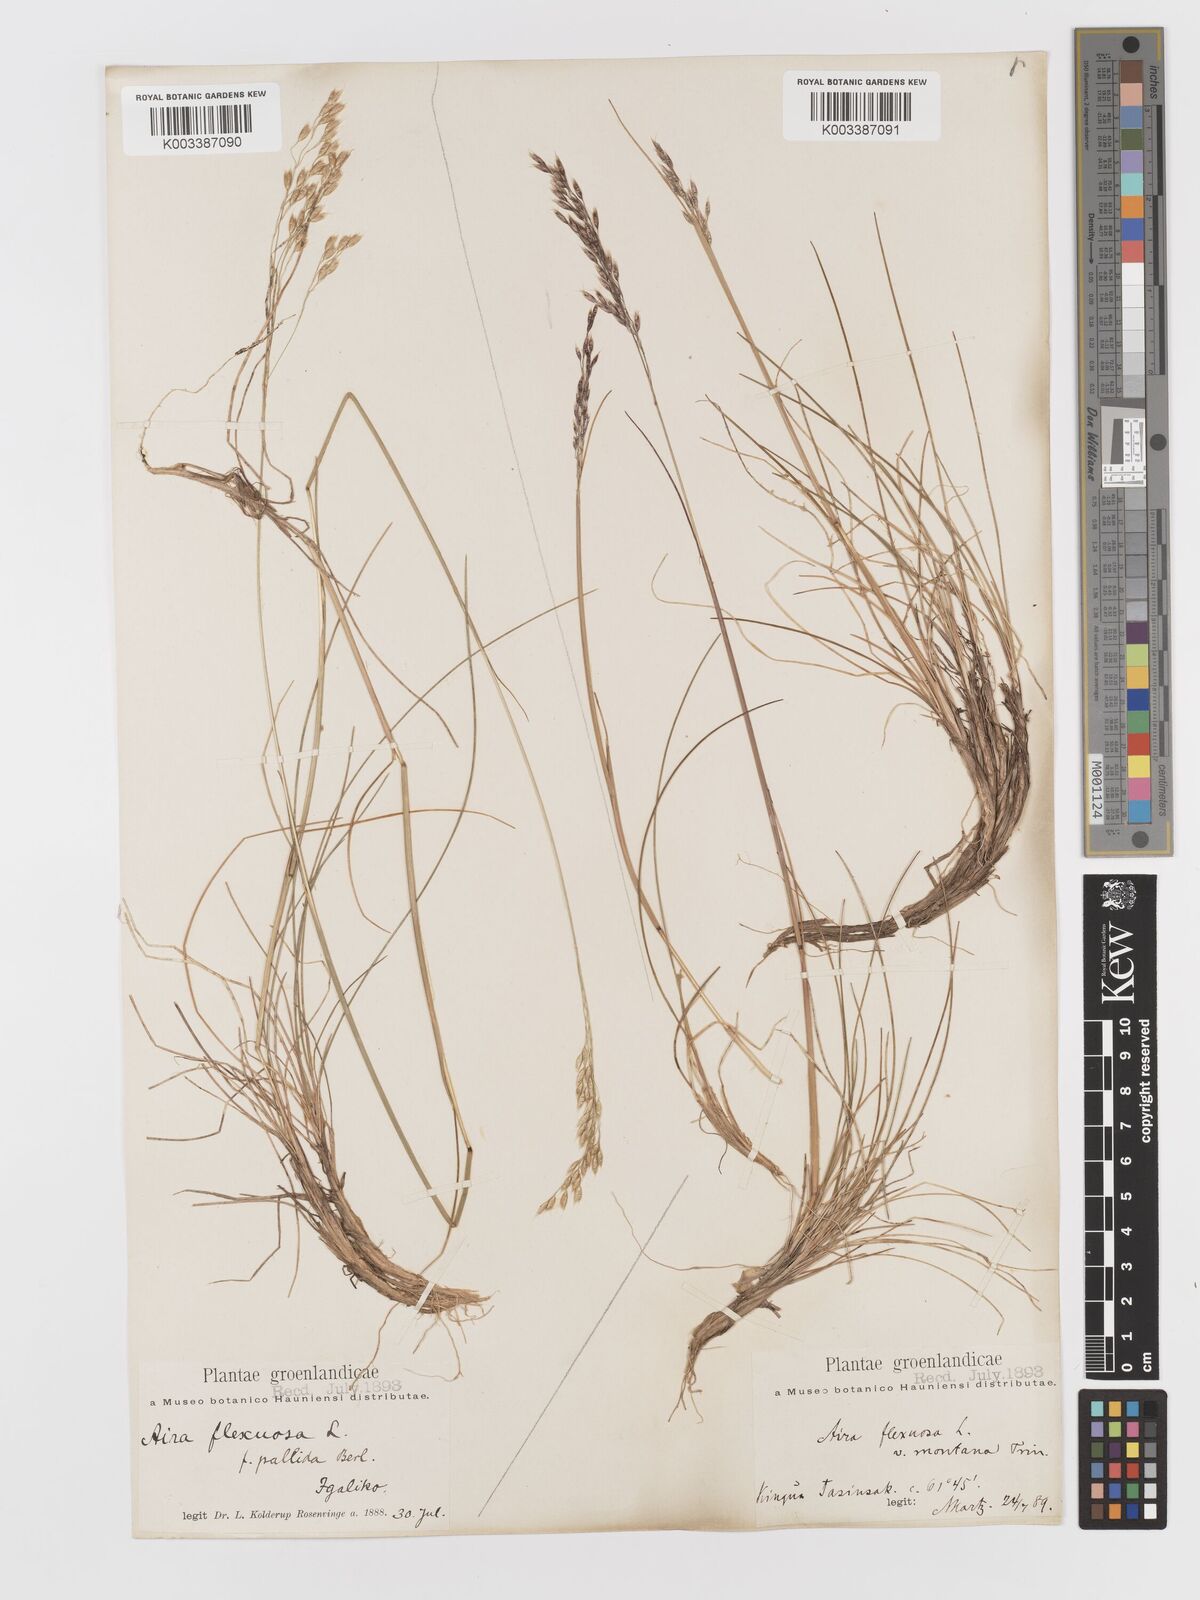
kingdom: Plantae
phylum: Tracheophyta
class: Liliopsida
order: Poales
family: Poaceae
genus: Avenella
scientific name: Avenella flexuosa
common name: Wavy hairgrass
